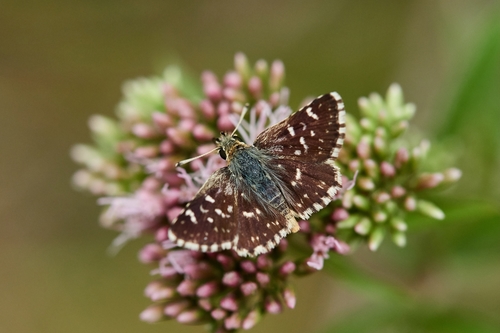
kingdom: Animalia
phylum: Arthropoda
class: Insecta
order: Lepidoptera
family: Hesperiidae
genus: Spialia
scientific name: Spialia sertorius
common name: Red underwing skipper
